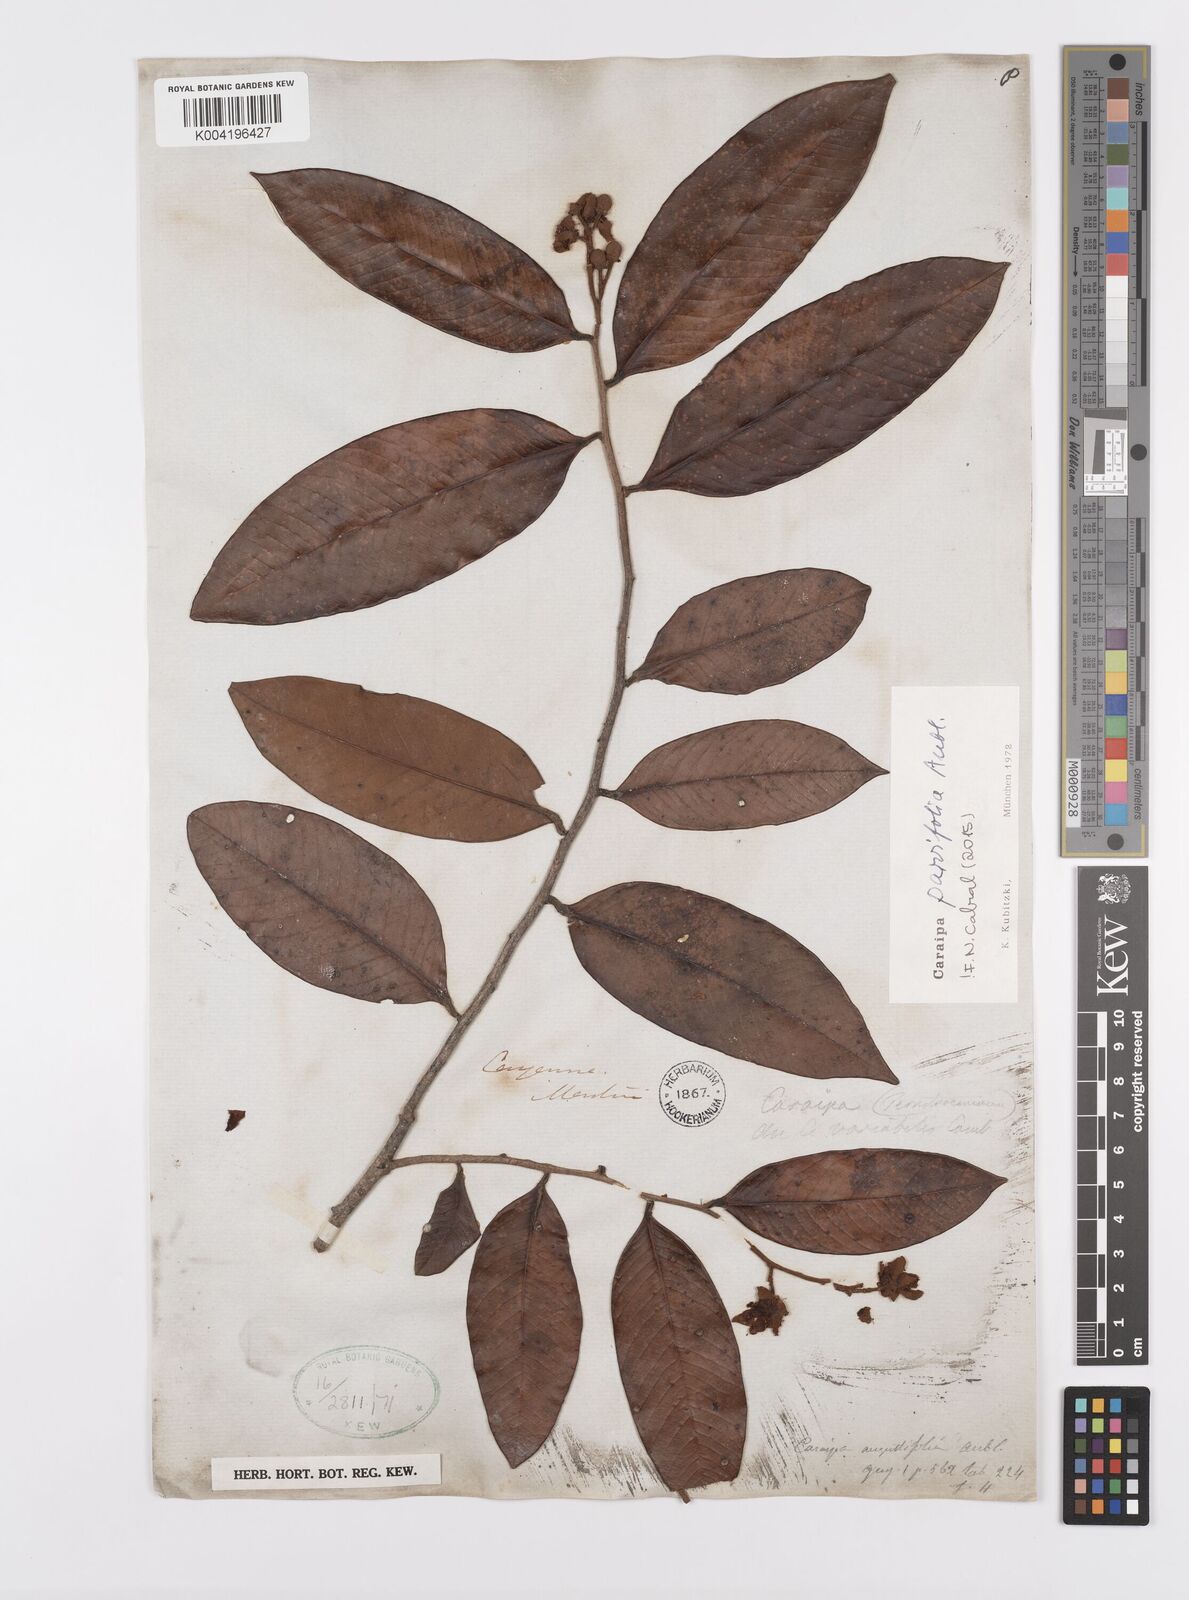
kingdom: Plantae
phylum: Tracheophyta
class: Magnoliopsida
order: Malpighiales
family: Calophyllaceae
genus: Caraipa
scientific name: Caraipa parvifolia
